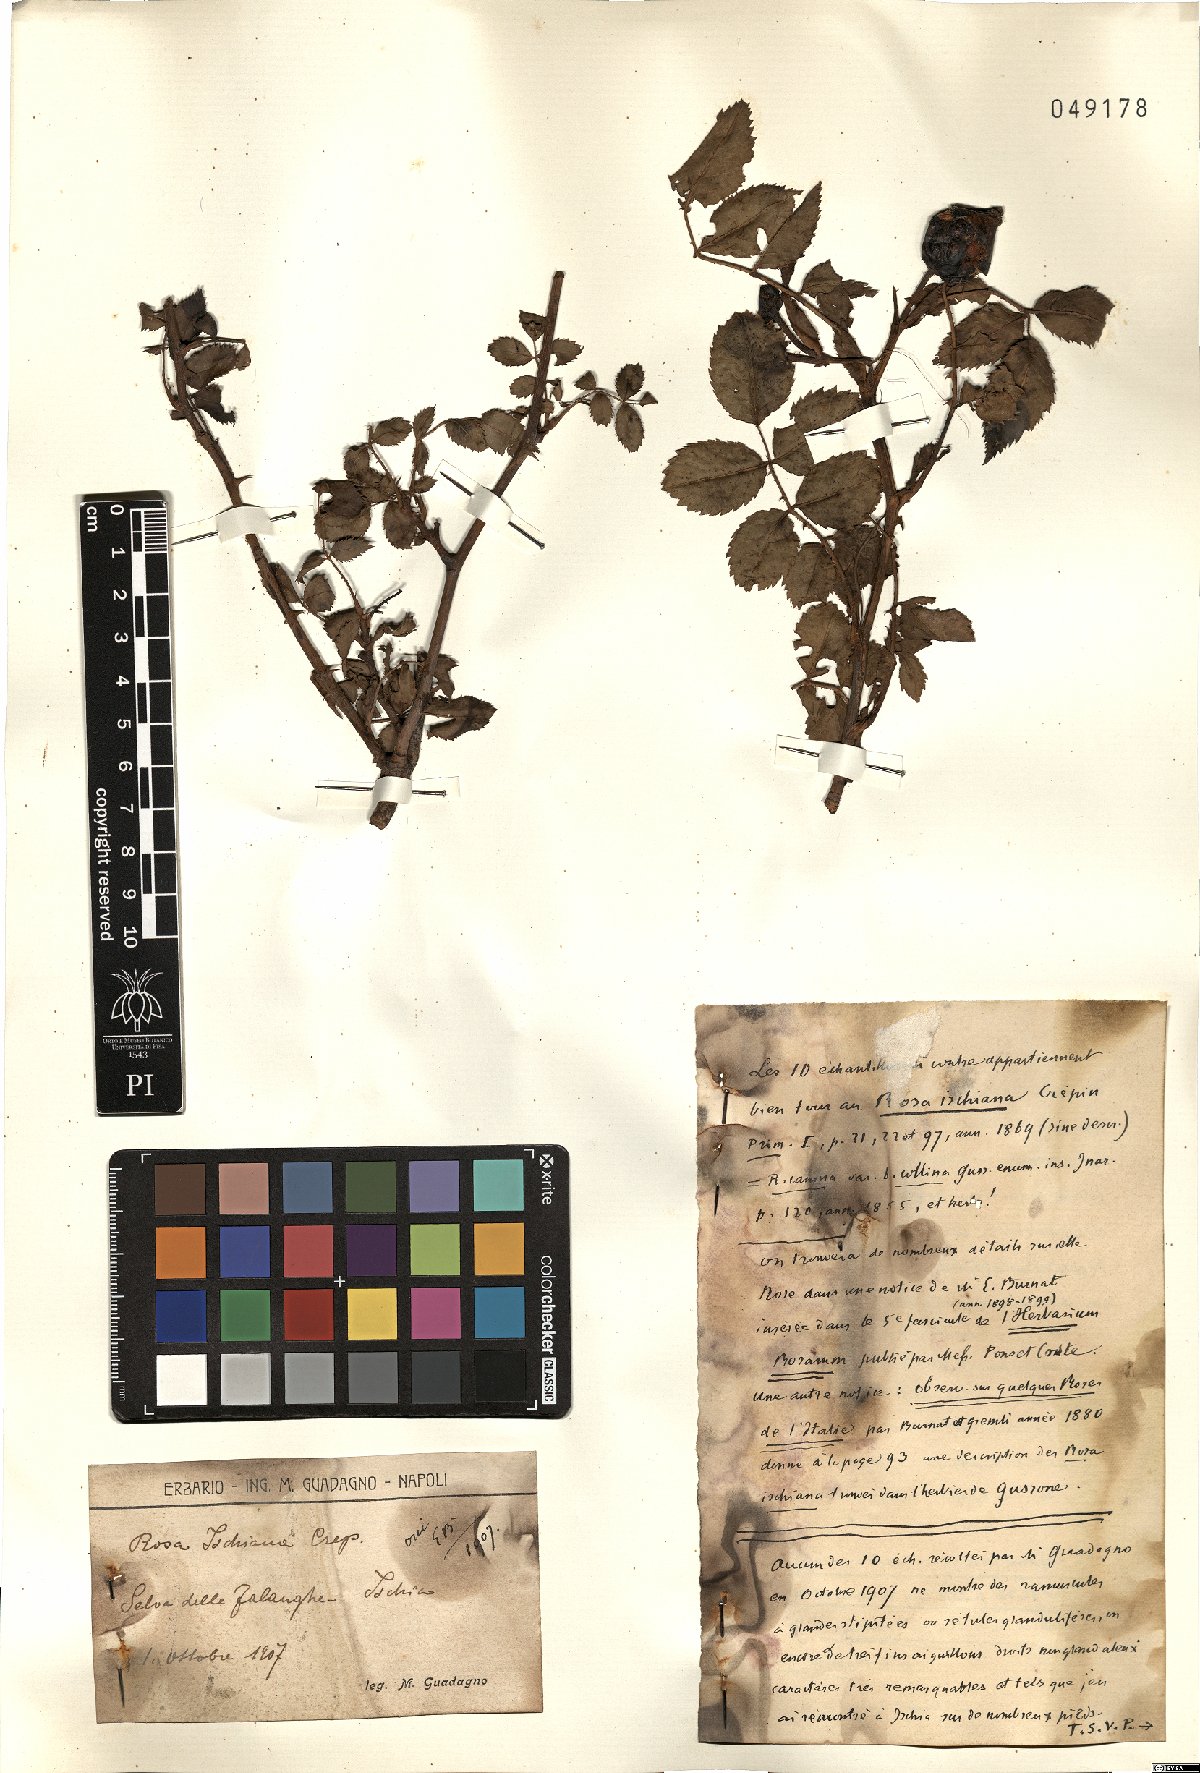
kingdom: Plantae
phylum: Tracheophyta
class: Magnoliopsida
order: Rosales
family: Rosaceae
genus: Rosa
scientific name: Rosa ischiana
